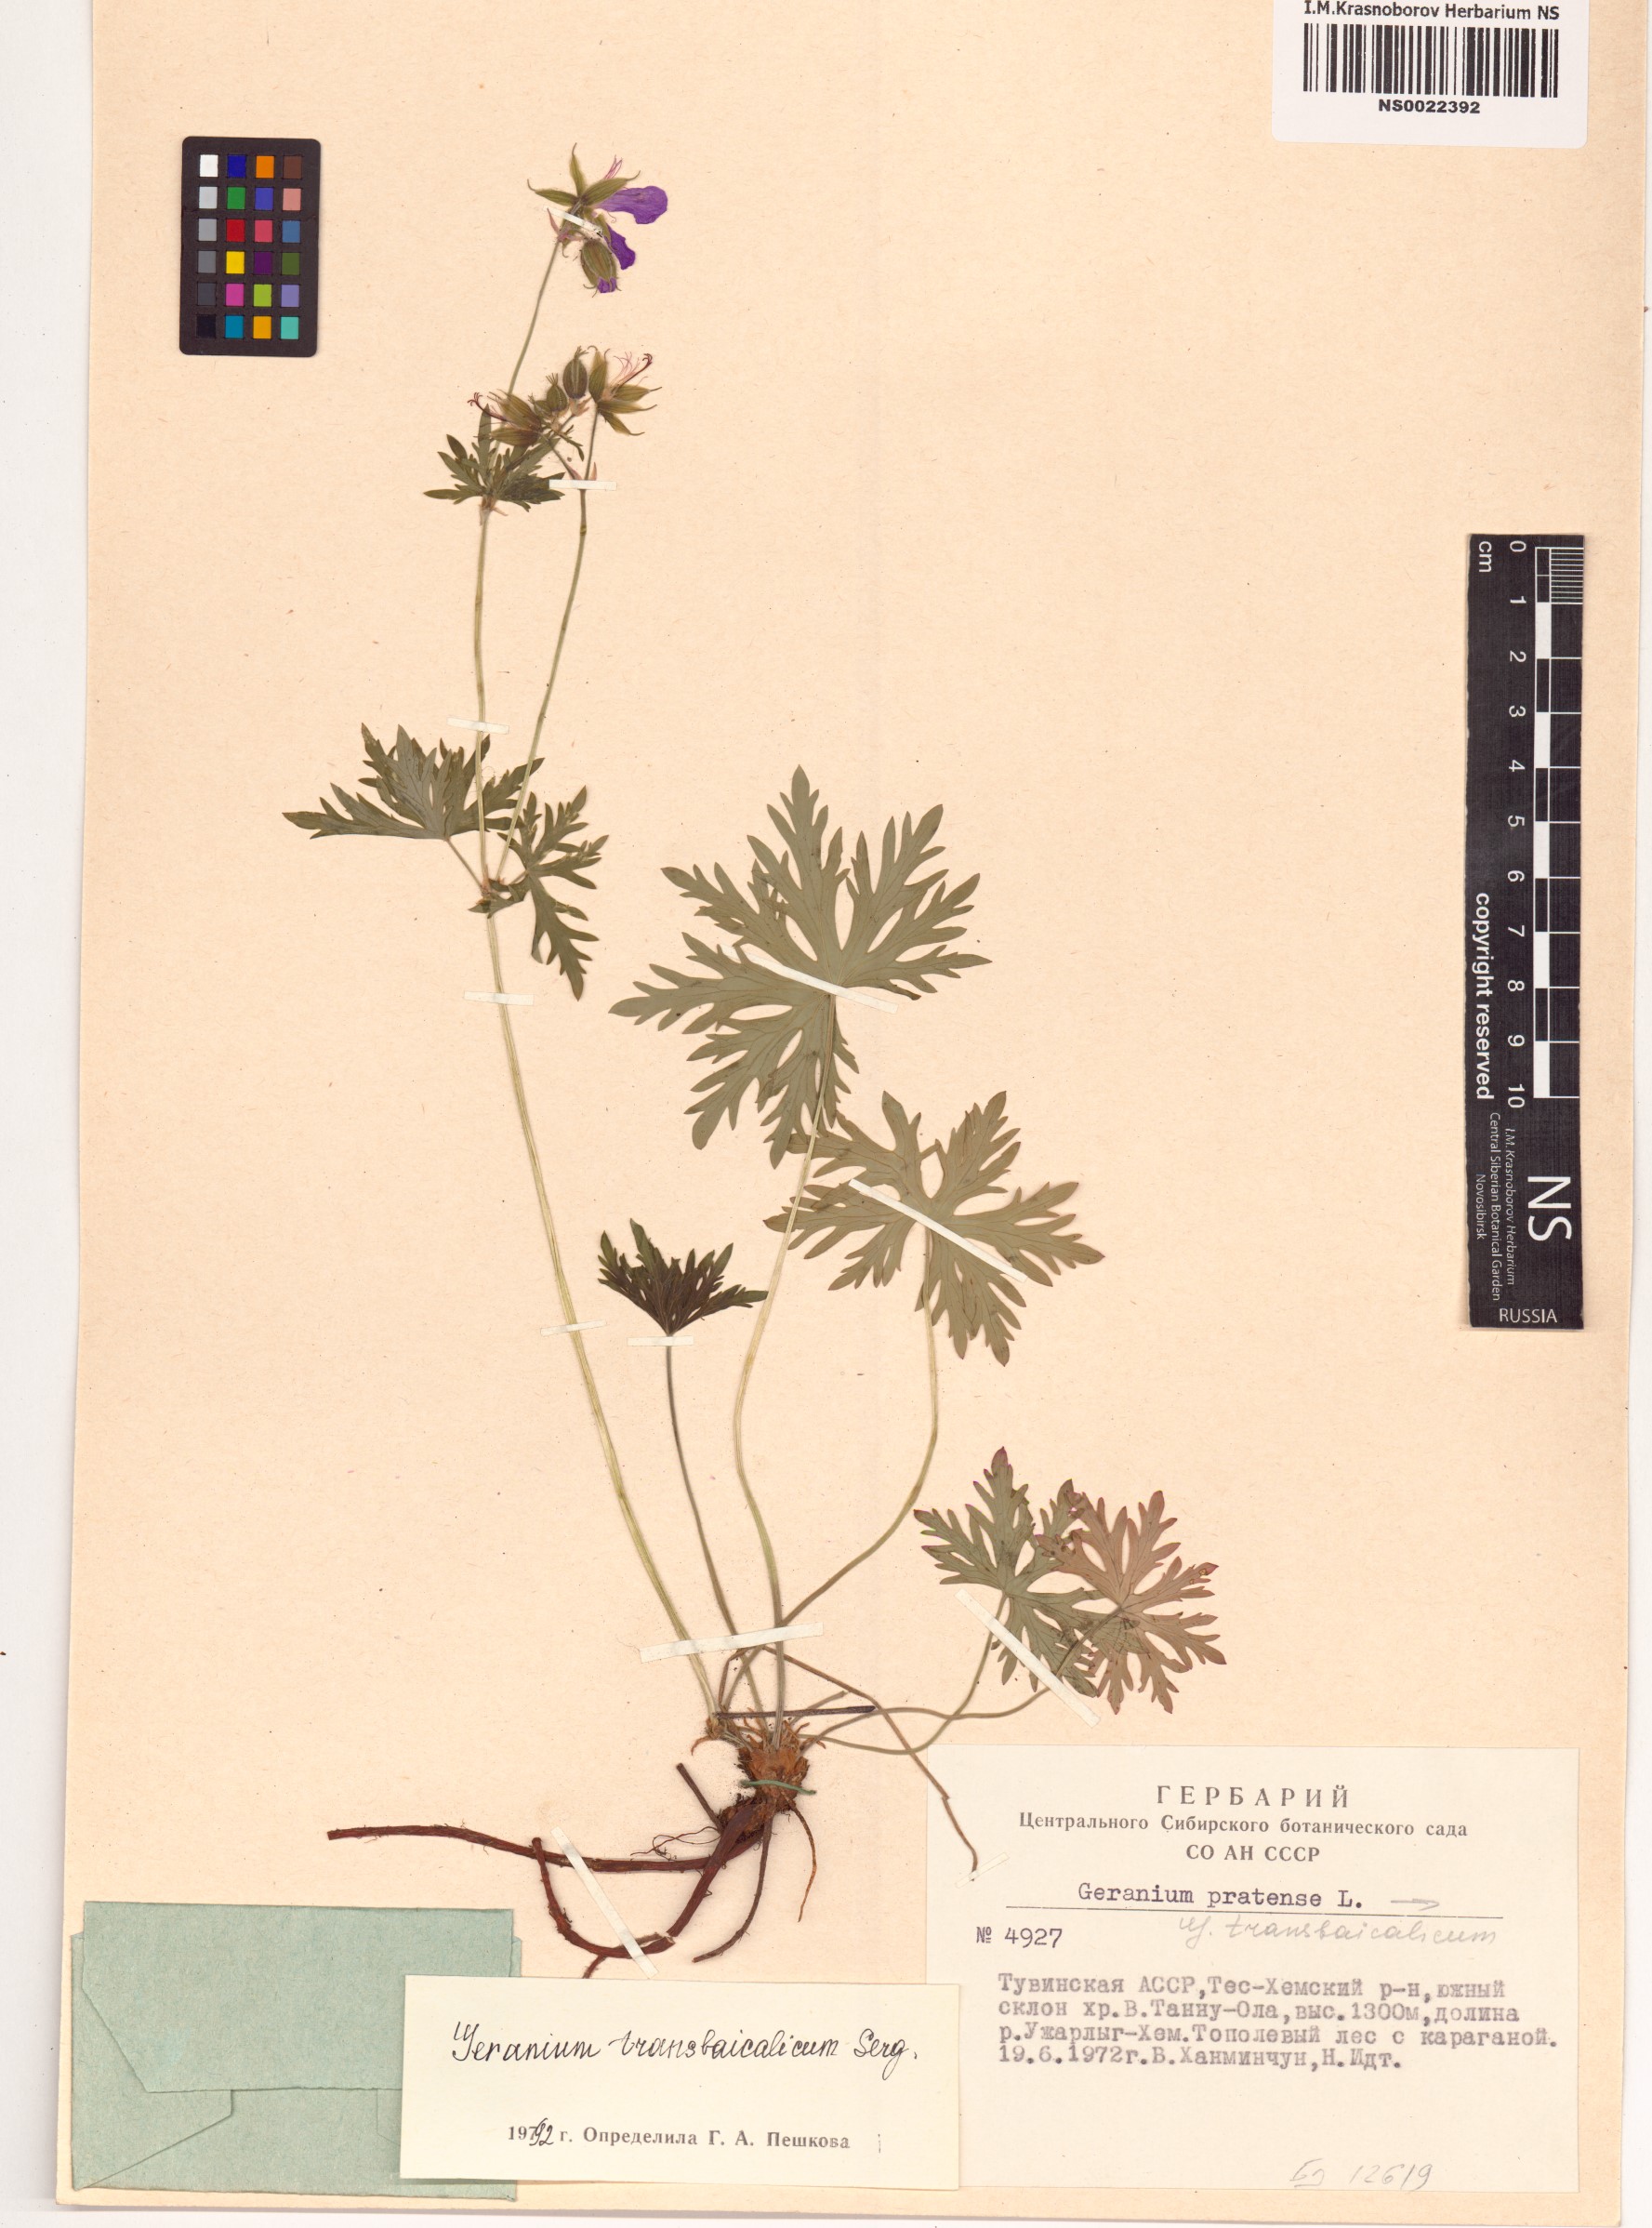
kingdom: Plantae
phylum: Tracheophyta
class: Magnoliopsida
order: Geraniales
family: Geraniaceae
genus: Geranium
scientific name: Geranium pratense
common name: Meadow crane's-bill
